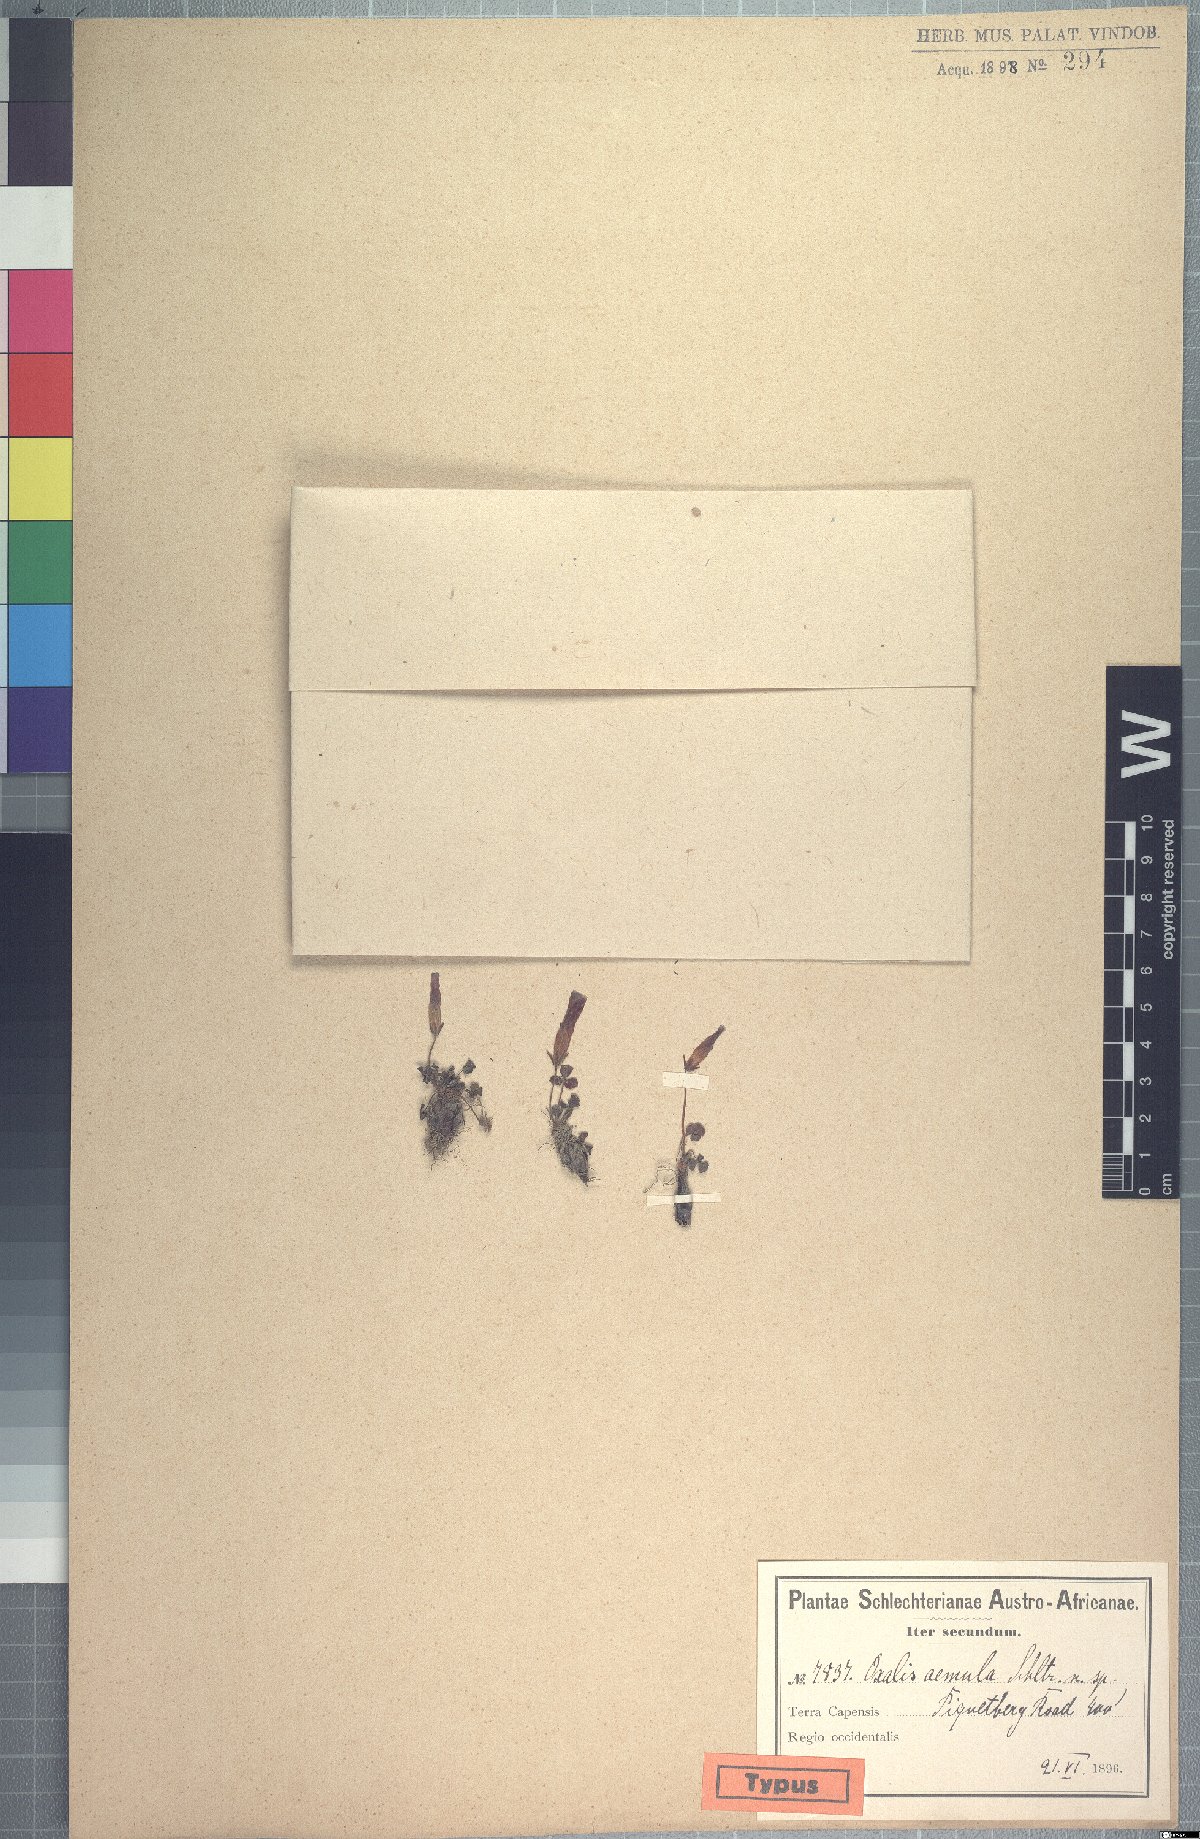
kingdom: Plantae
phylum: Tracheophyta
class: Magnoliopsida
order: Oxalidales
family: Oxalidaceae
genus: Oxalis
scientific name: Oxalis purpurea
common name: Purple woodsorrel
